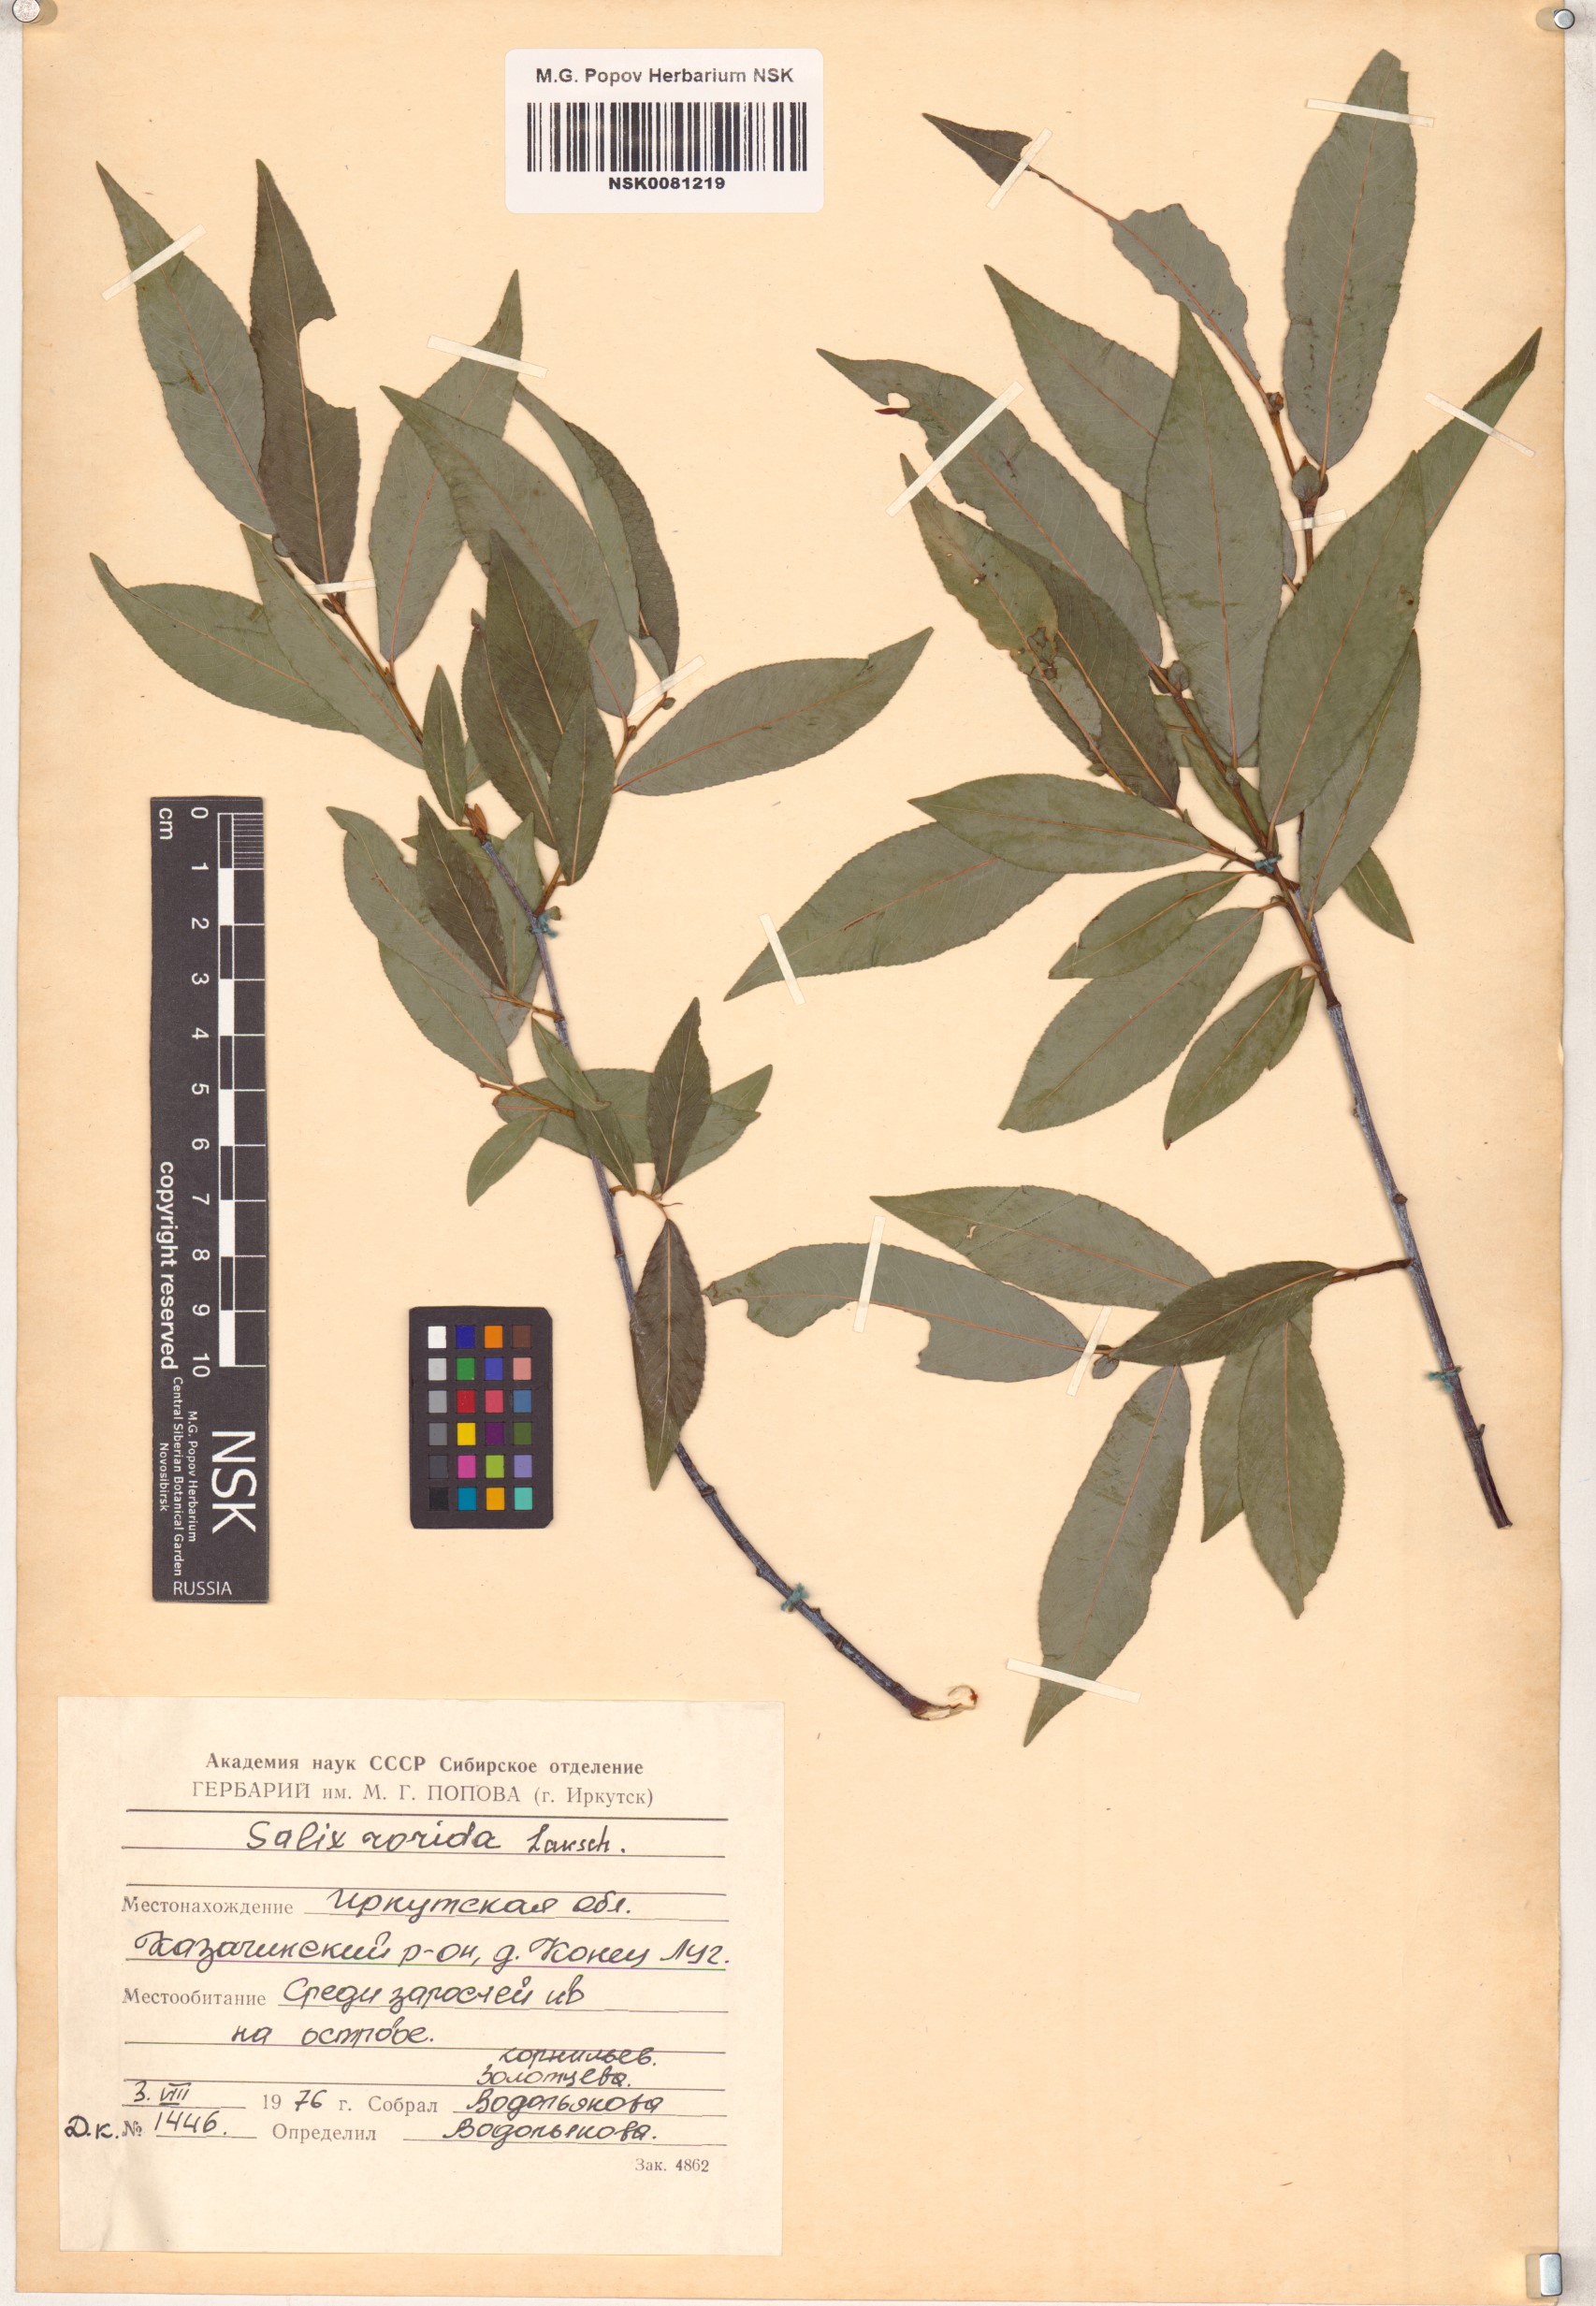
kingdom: Plantae
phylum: Tracheophyta
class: Magnoliopsida
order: Malpighiales
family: Salicaceae
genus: Salix
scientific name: Salix rorida
